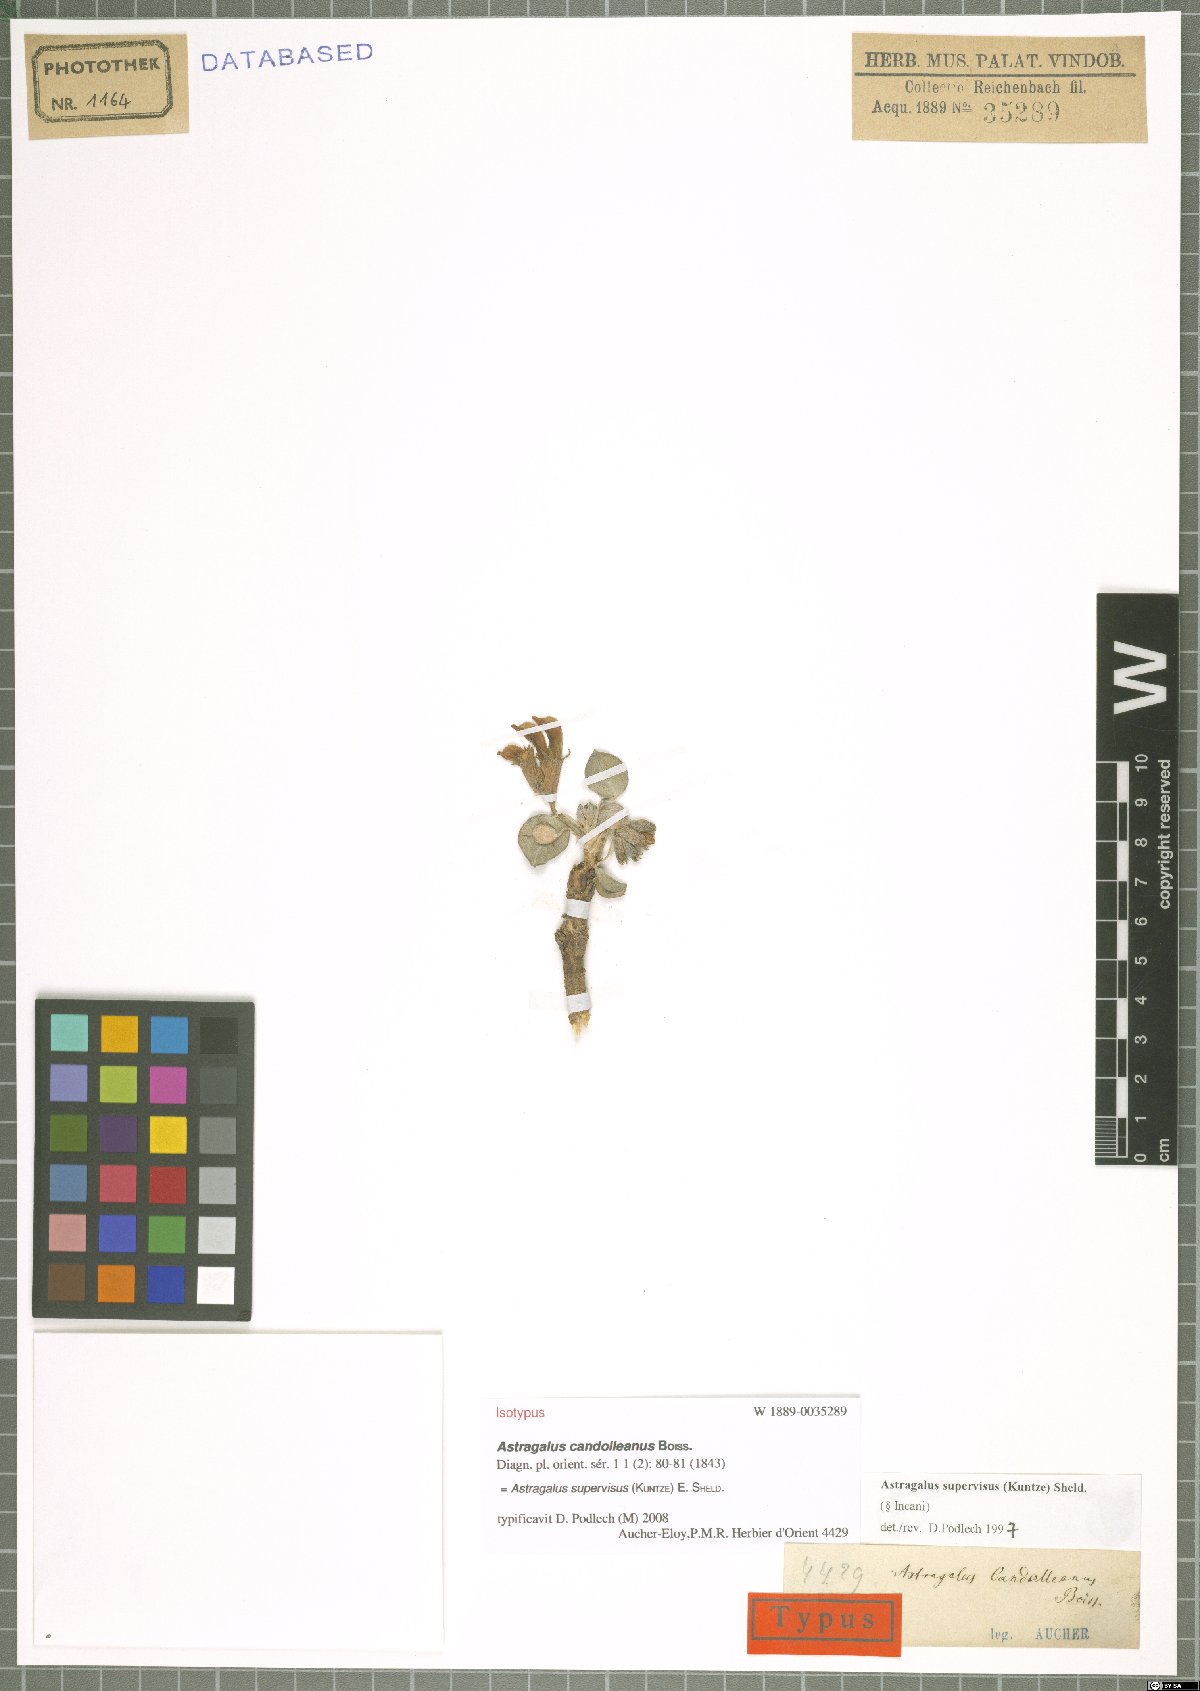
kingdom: Plantae
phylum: Tracheophyta
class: Magnoliopsida
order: Fabales
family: Fabaceae
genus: Astragalus
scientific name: Astragalus supervisus
